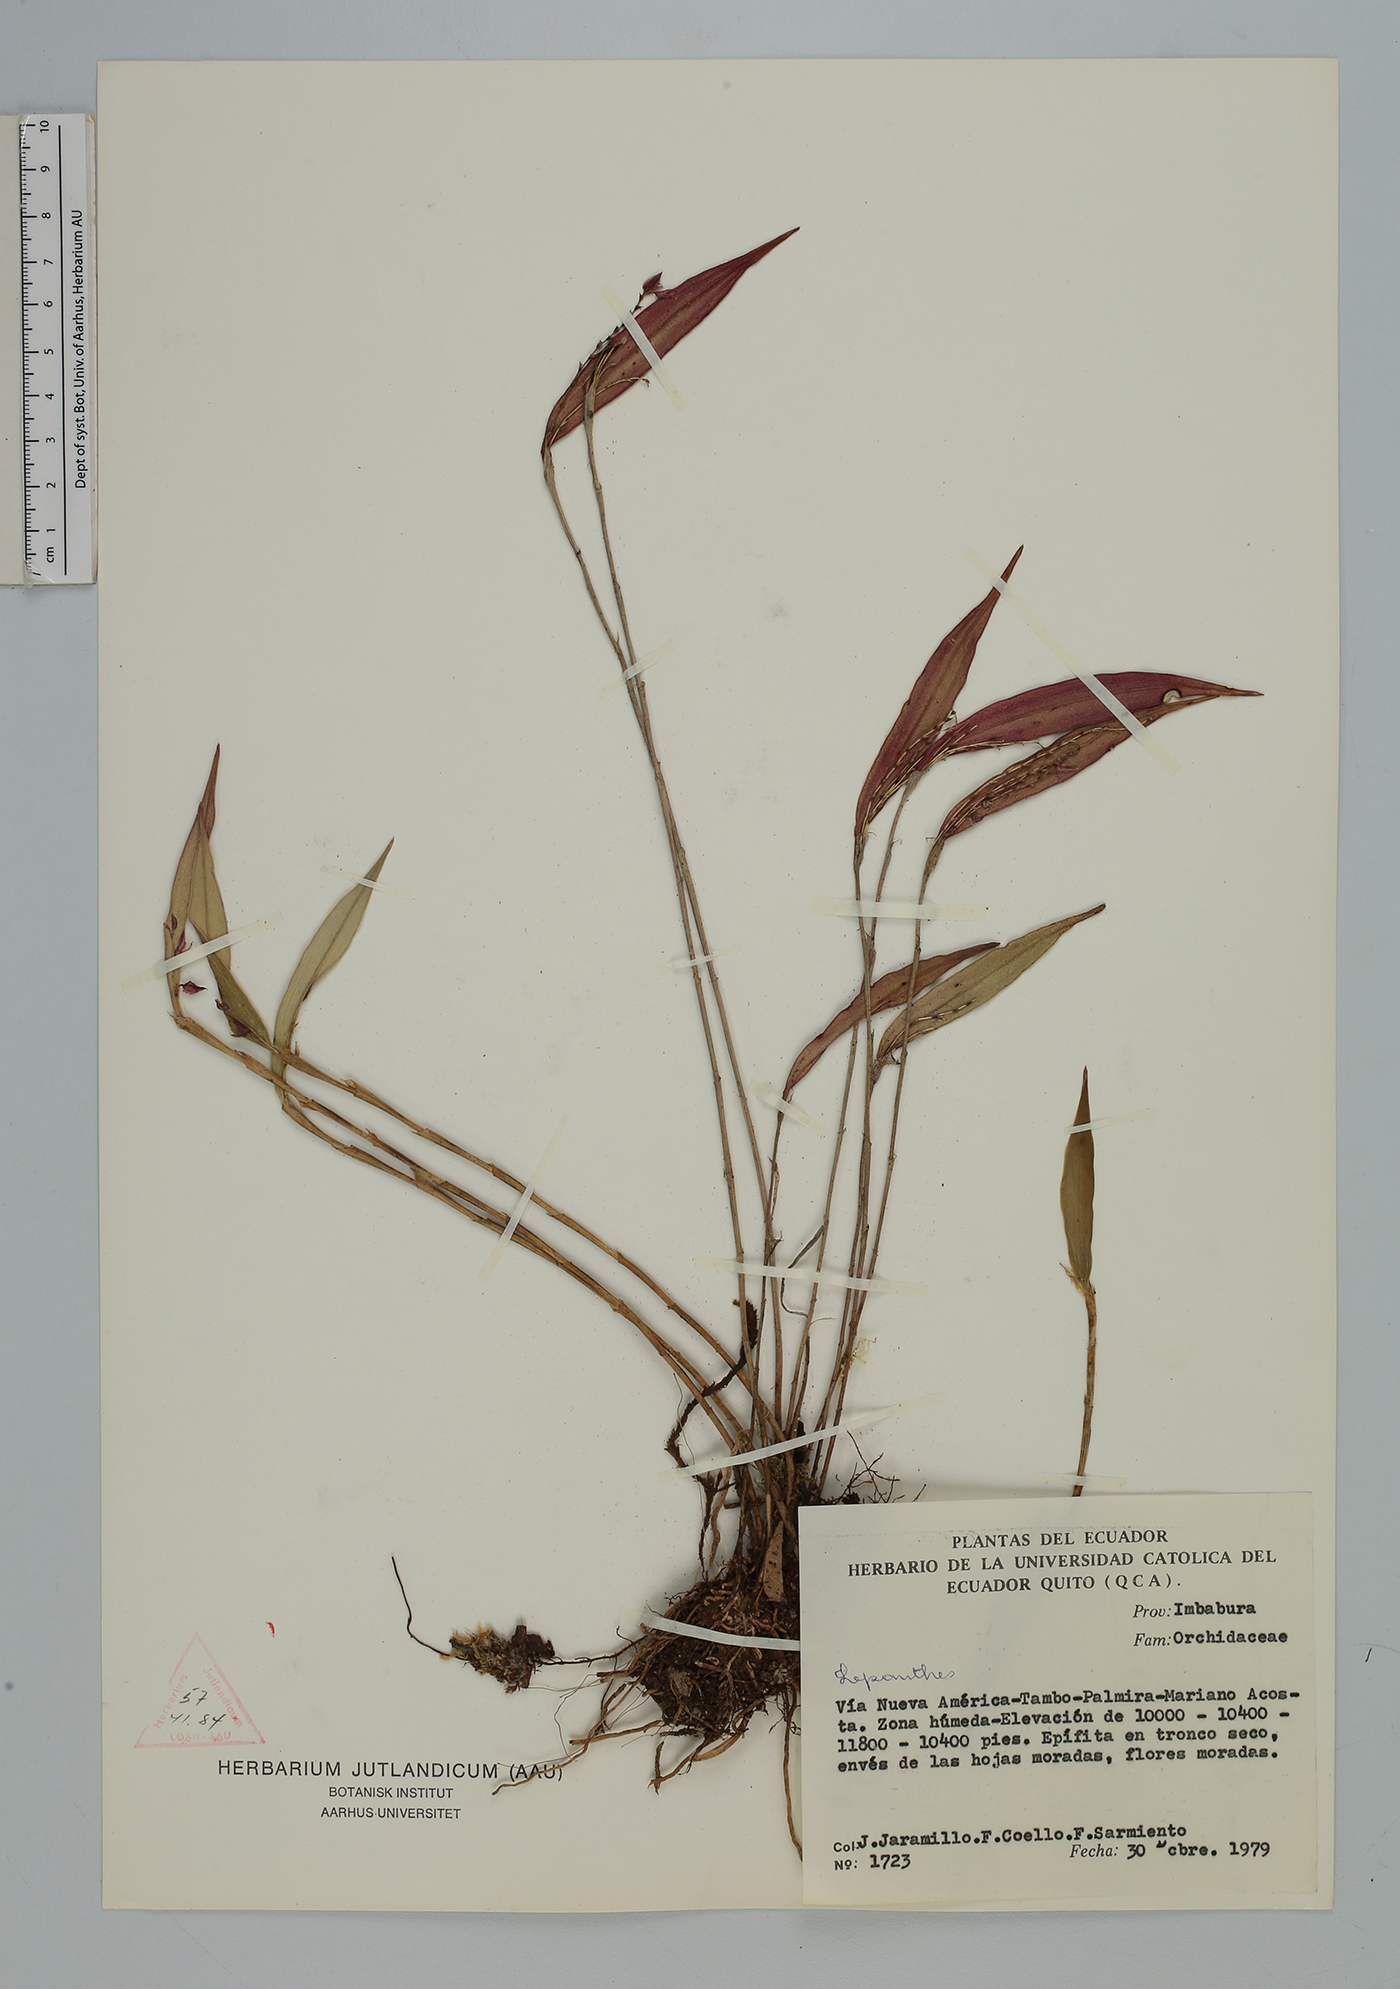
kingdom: Plantae
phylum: Tracheophyta
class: Liliopsida
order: Asparagales
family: Orchidaceae
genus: Lepanthes
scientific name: Lepanthes
